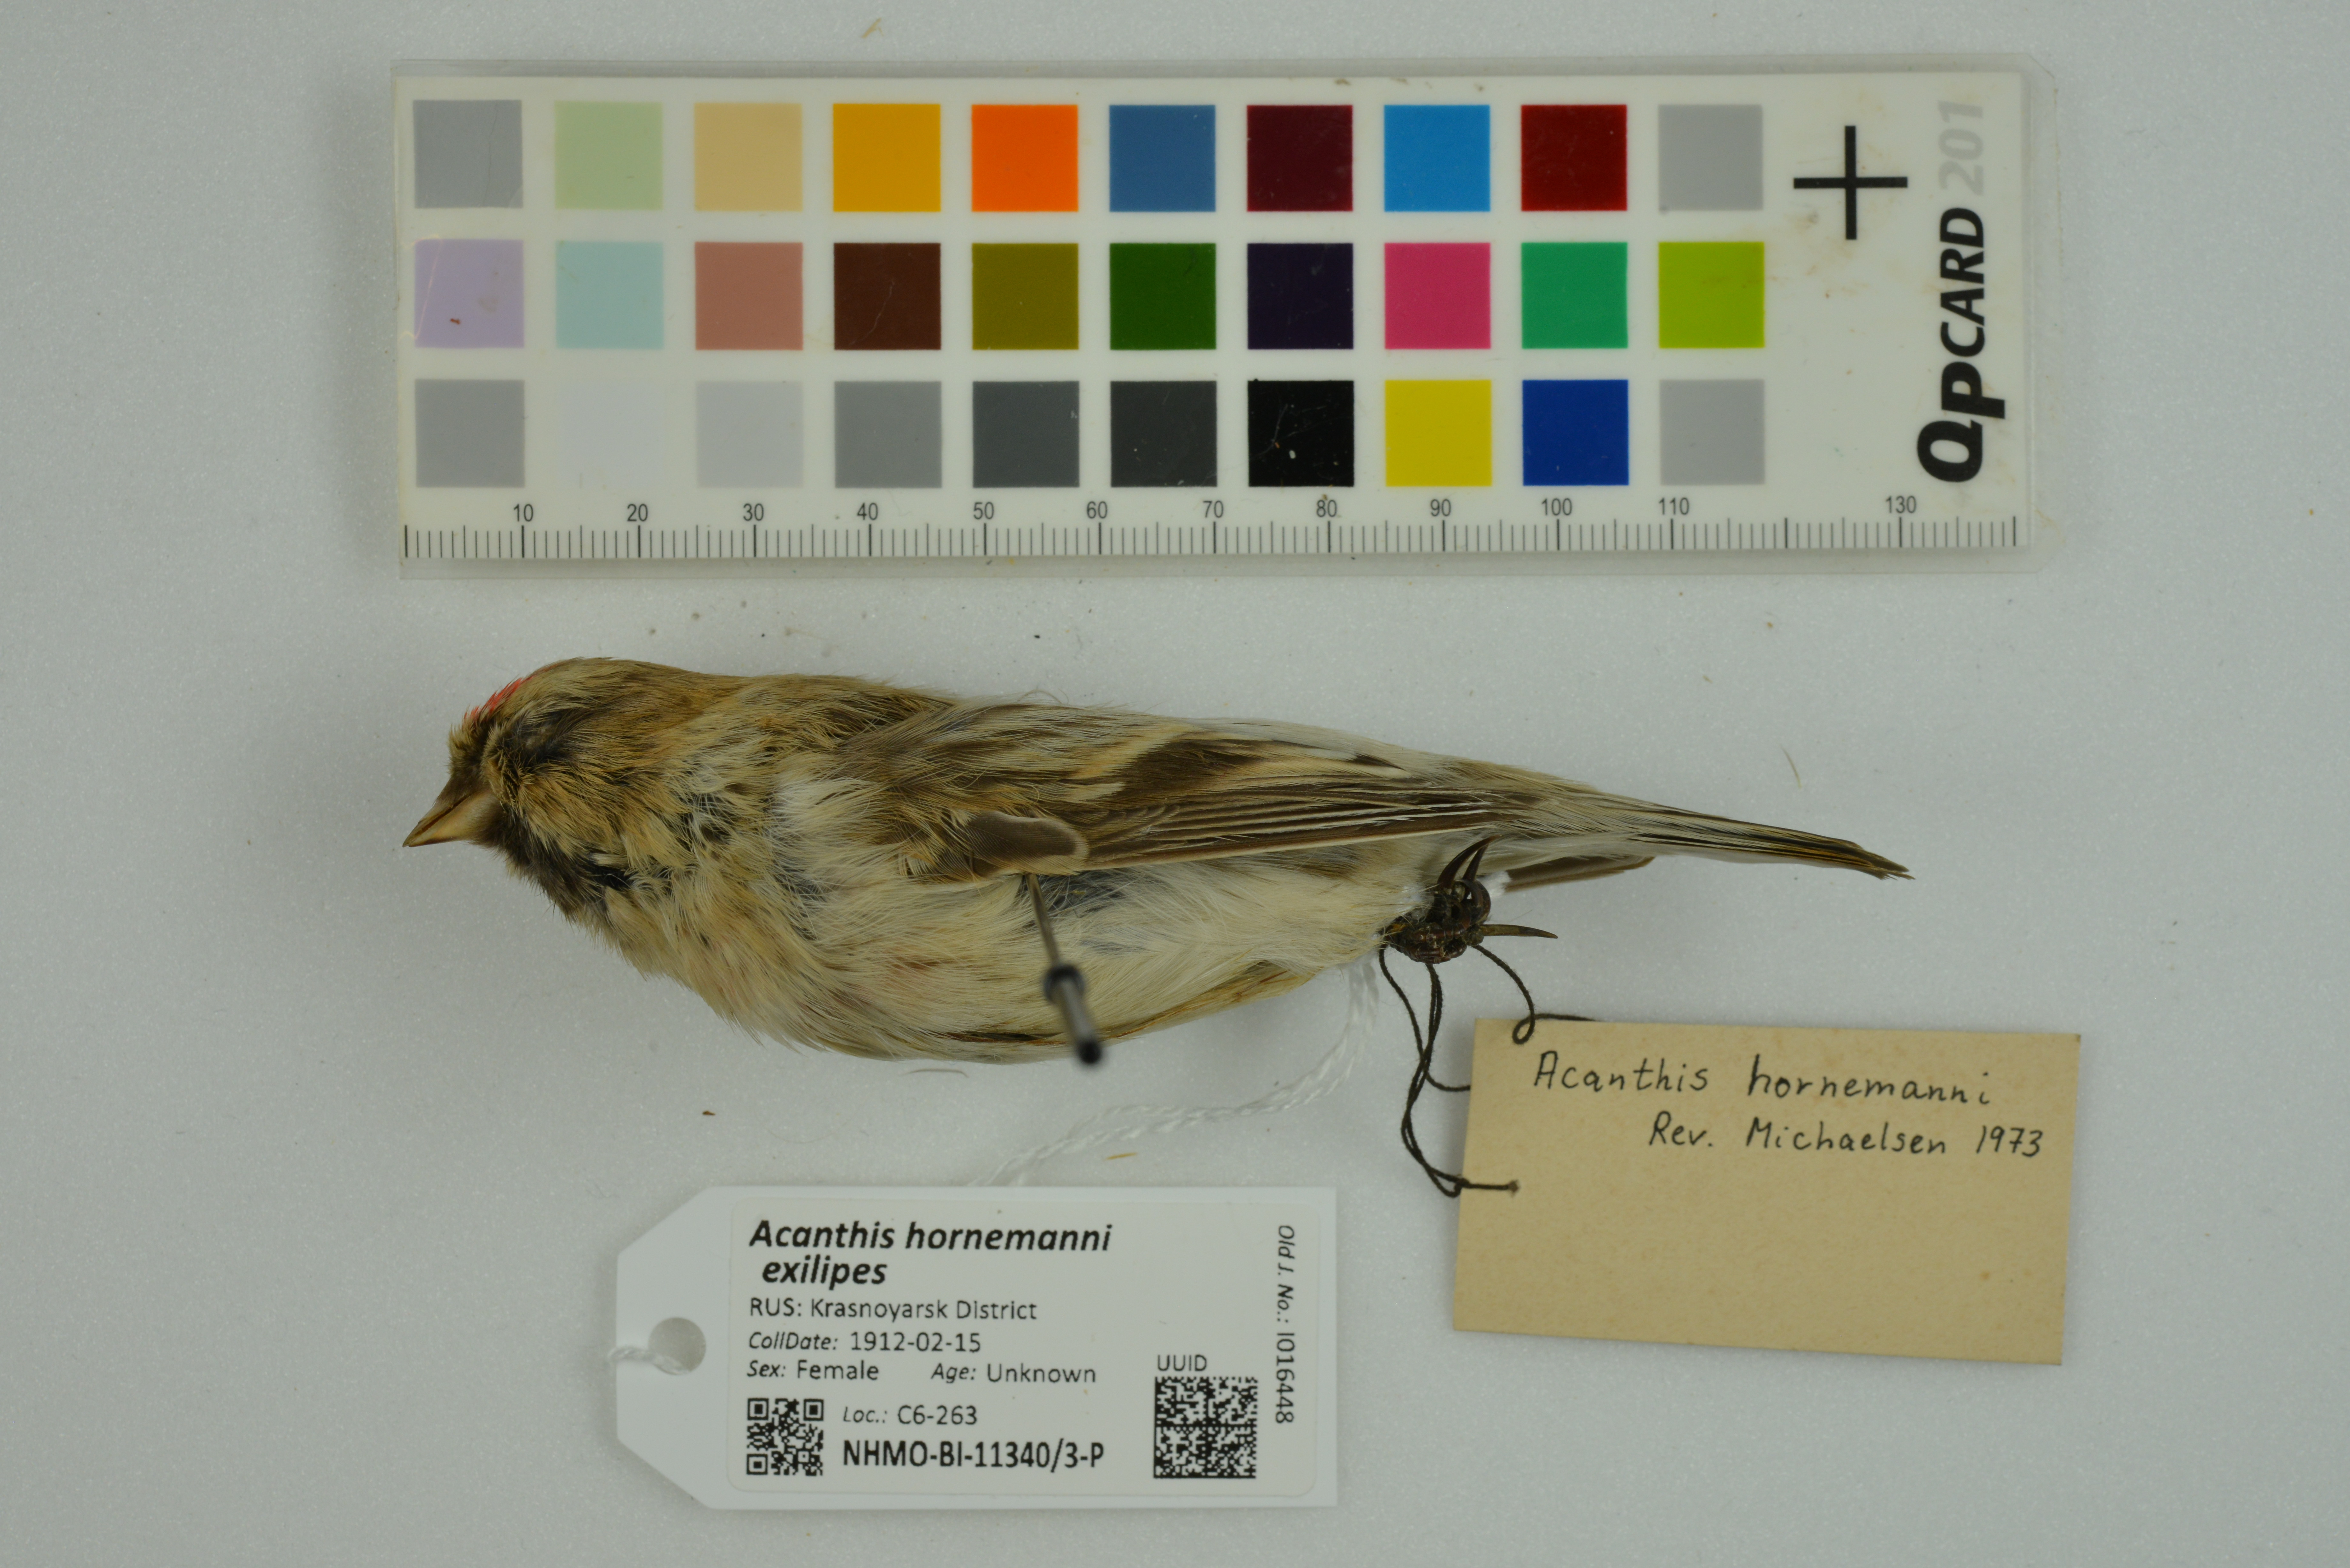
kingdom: Animalia
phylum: Chordata
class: Aves
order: Passeriformes
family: Fringillidae
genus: Acanthis
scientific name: Acanthis hornemanni
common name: Arctic redpoll
